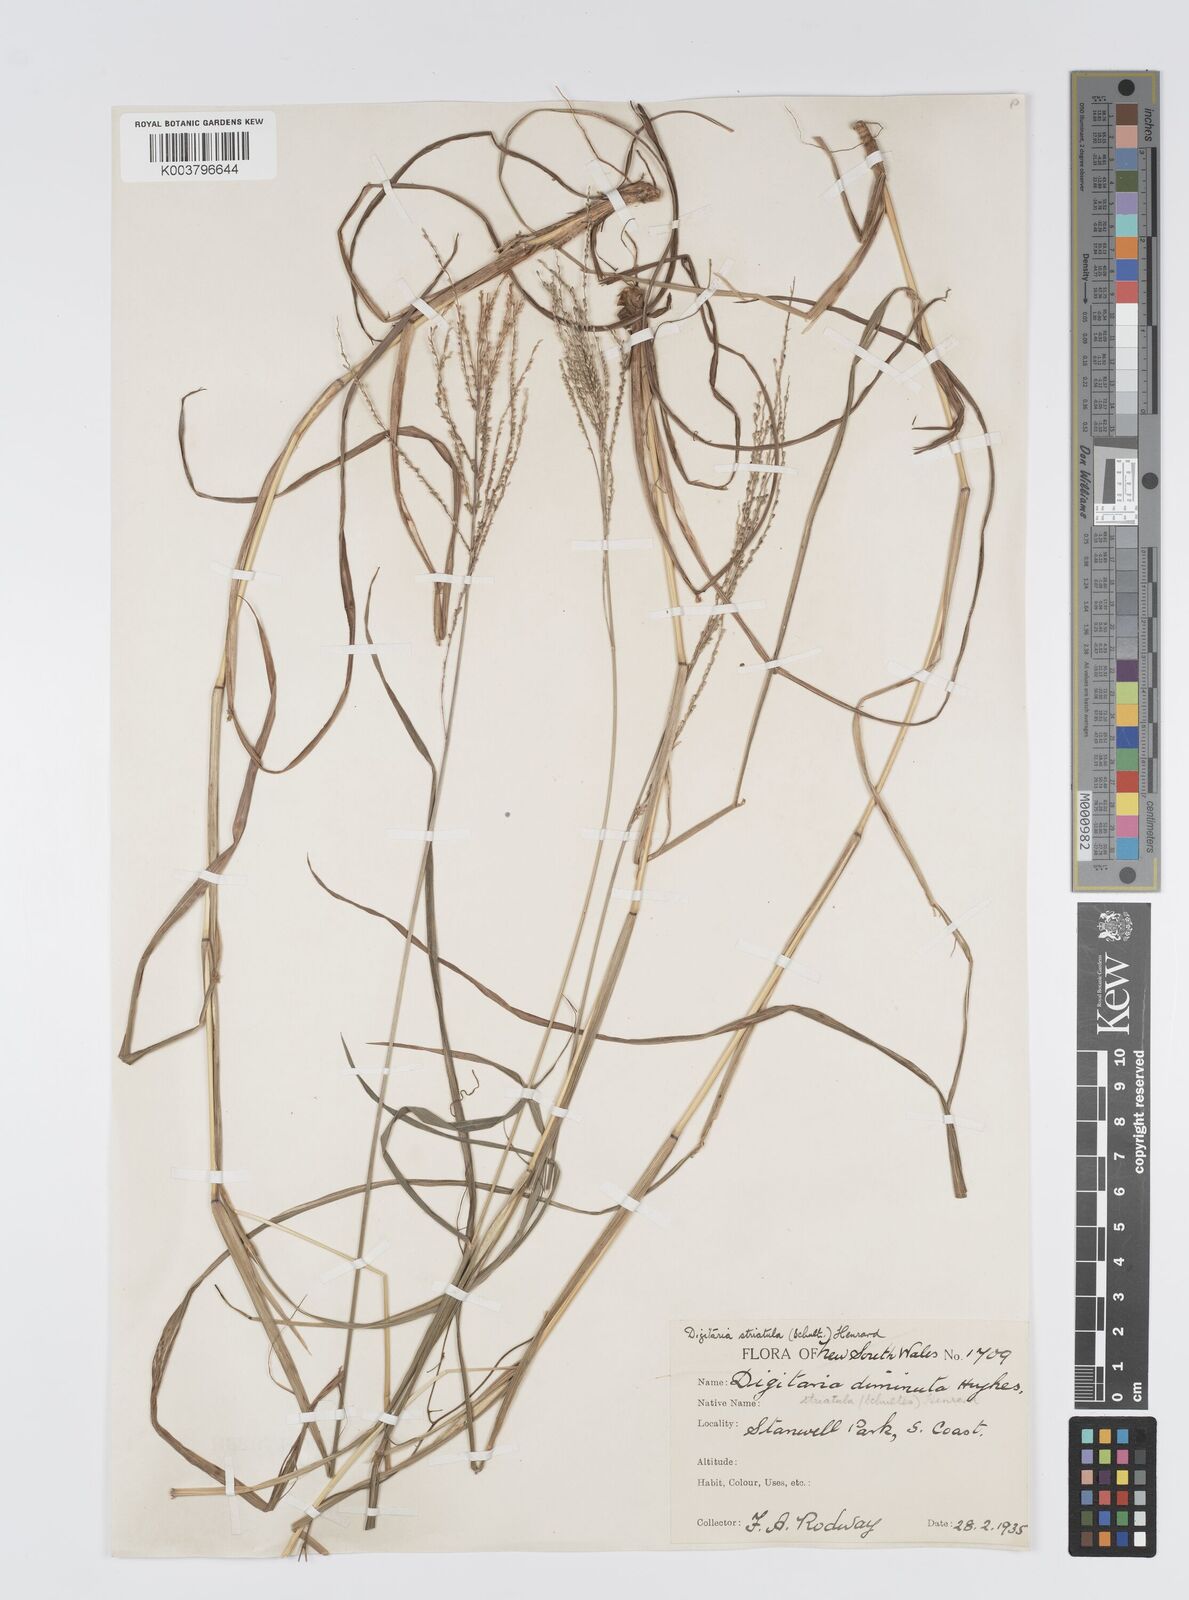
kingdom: Plantae
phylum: Tracheophyta
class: Liliopsida
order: Poales
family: Poaceae
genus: Digitaria
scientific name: Digitaria parviflora
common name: Small-flower finger grass
